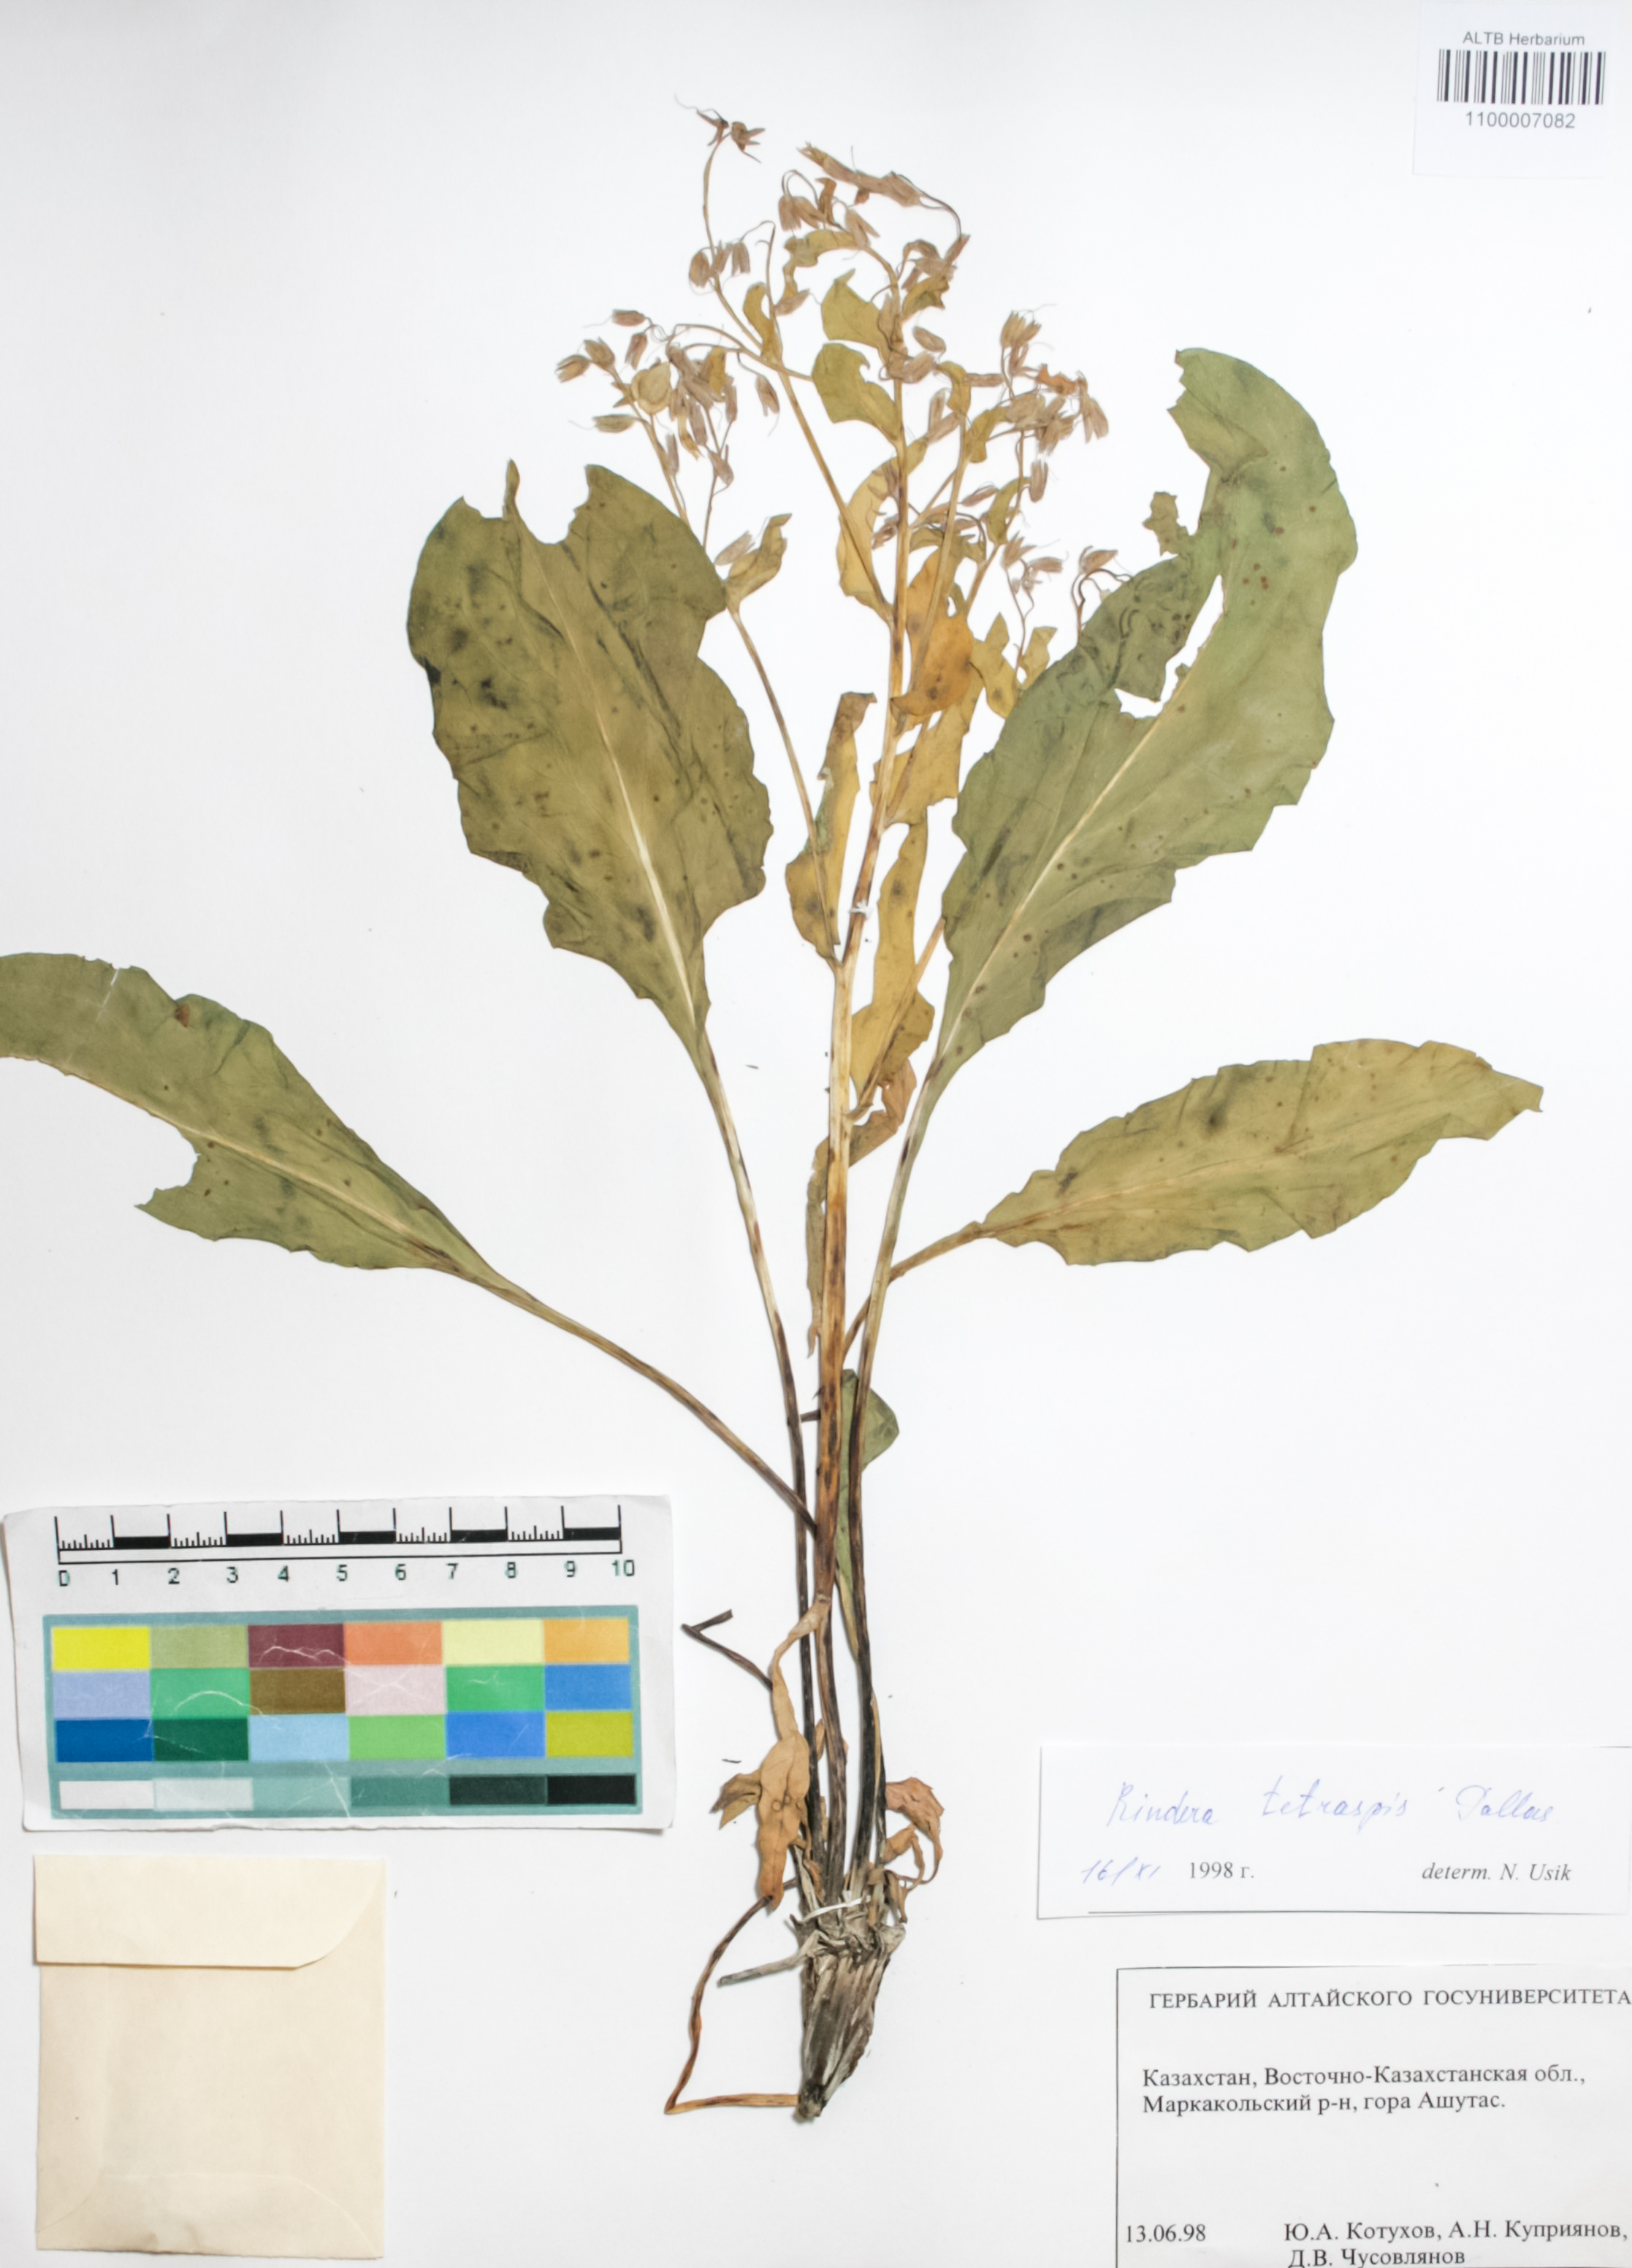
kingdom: Plantae
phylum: Tracheophyta
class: Magnoliopsida
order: Boraginales
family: Boraginaceae
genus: Rindera
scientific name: Rindera tetraspis
